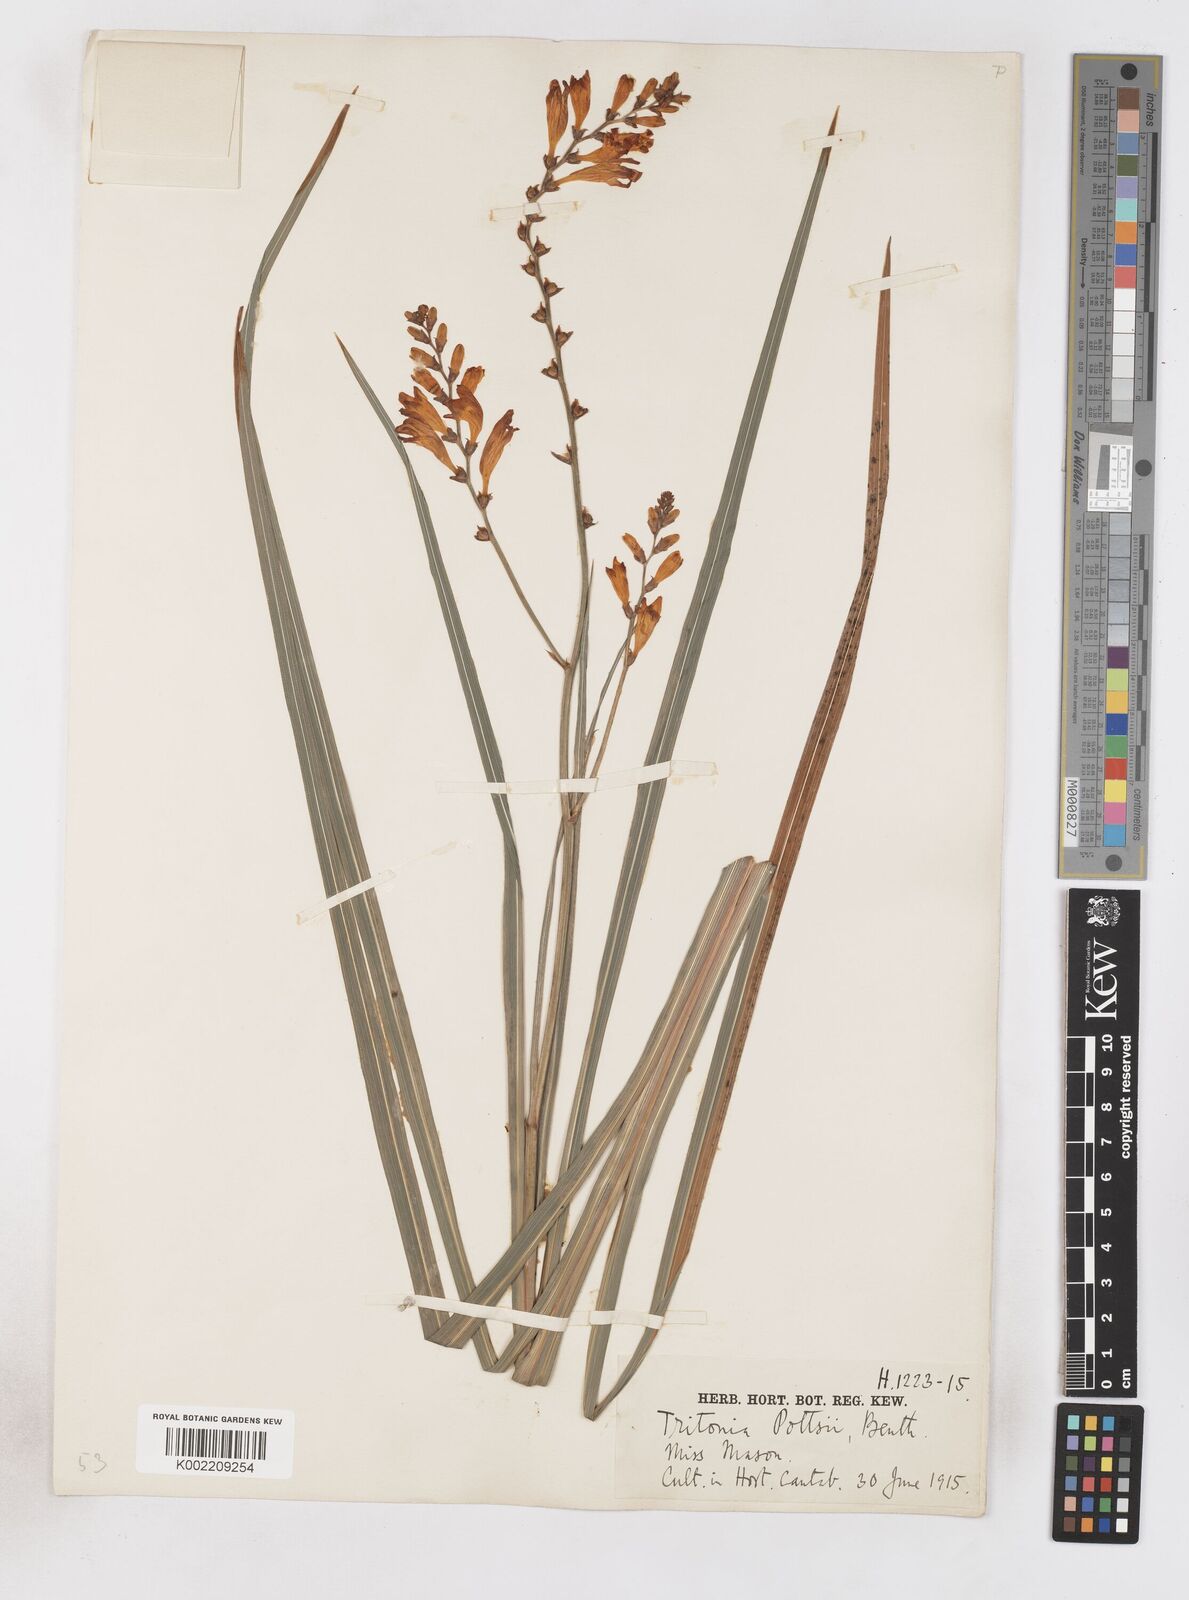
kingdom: Plantae
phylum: Tracheophyta
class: Liliopsida
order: Asparagales
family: Iridaceae
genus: Crocosmia
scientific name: Crocosmia pottsii
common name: Pott's montbretia
